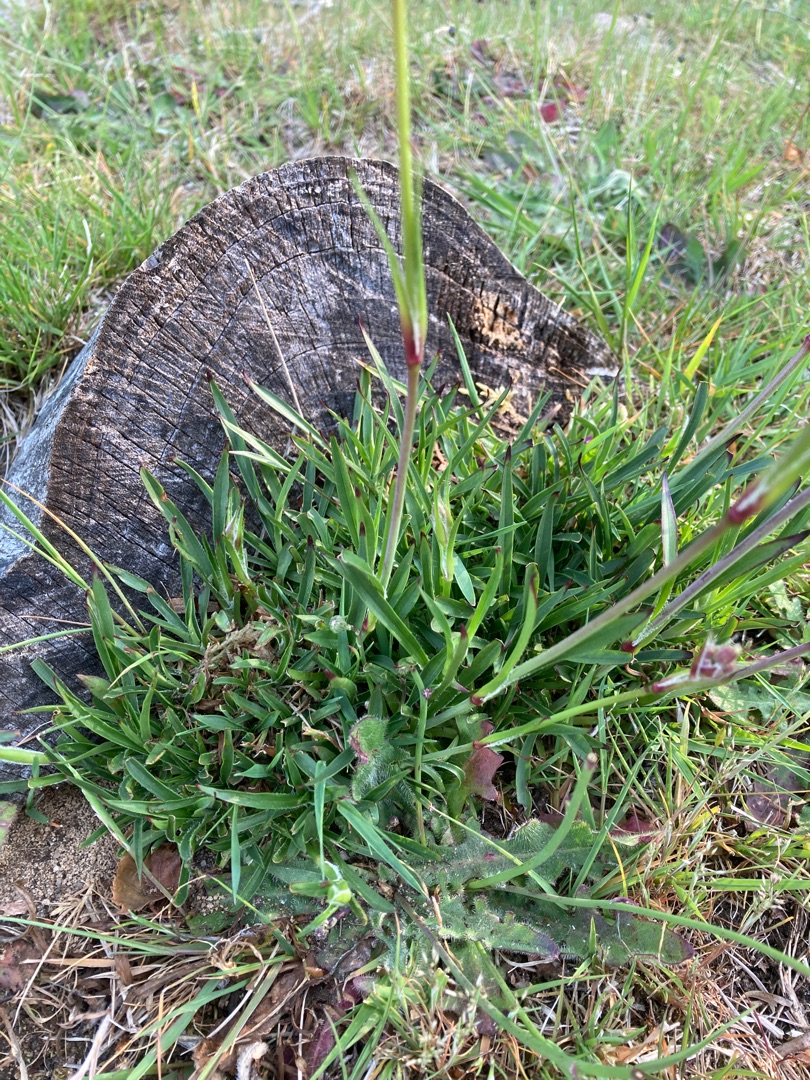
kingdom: Plantae
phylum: Tracheophyta
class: Magnoliopsida
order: Caryophyllales
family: Caryophyllaceae
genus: Viscaria
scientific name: Viscaria vulgaris
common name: Tjærenellike
